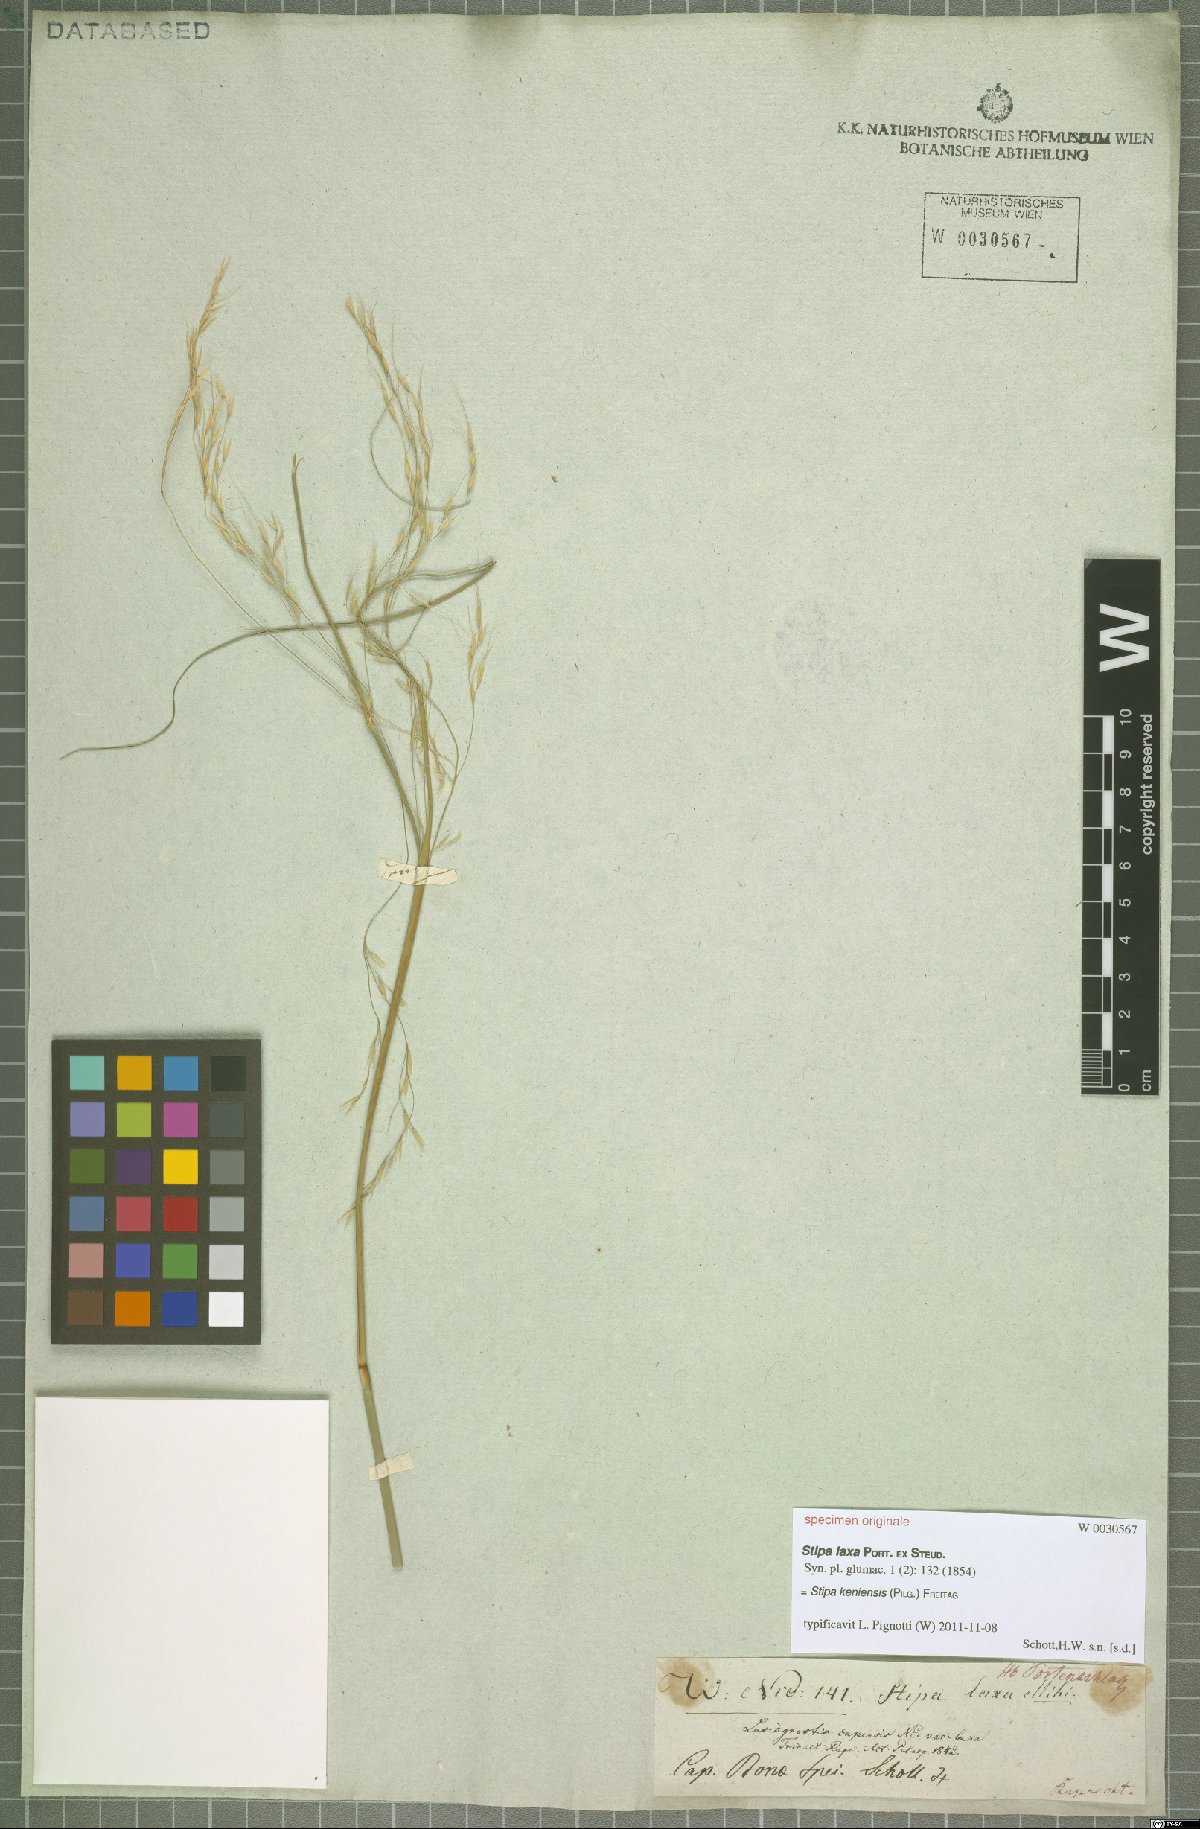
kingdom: Plantae
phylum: Tracheophyta
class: Liliopsida
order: Poales
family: Poaceae
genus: Stipa
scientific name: Stipa keniensis
